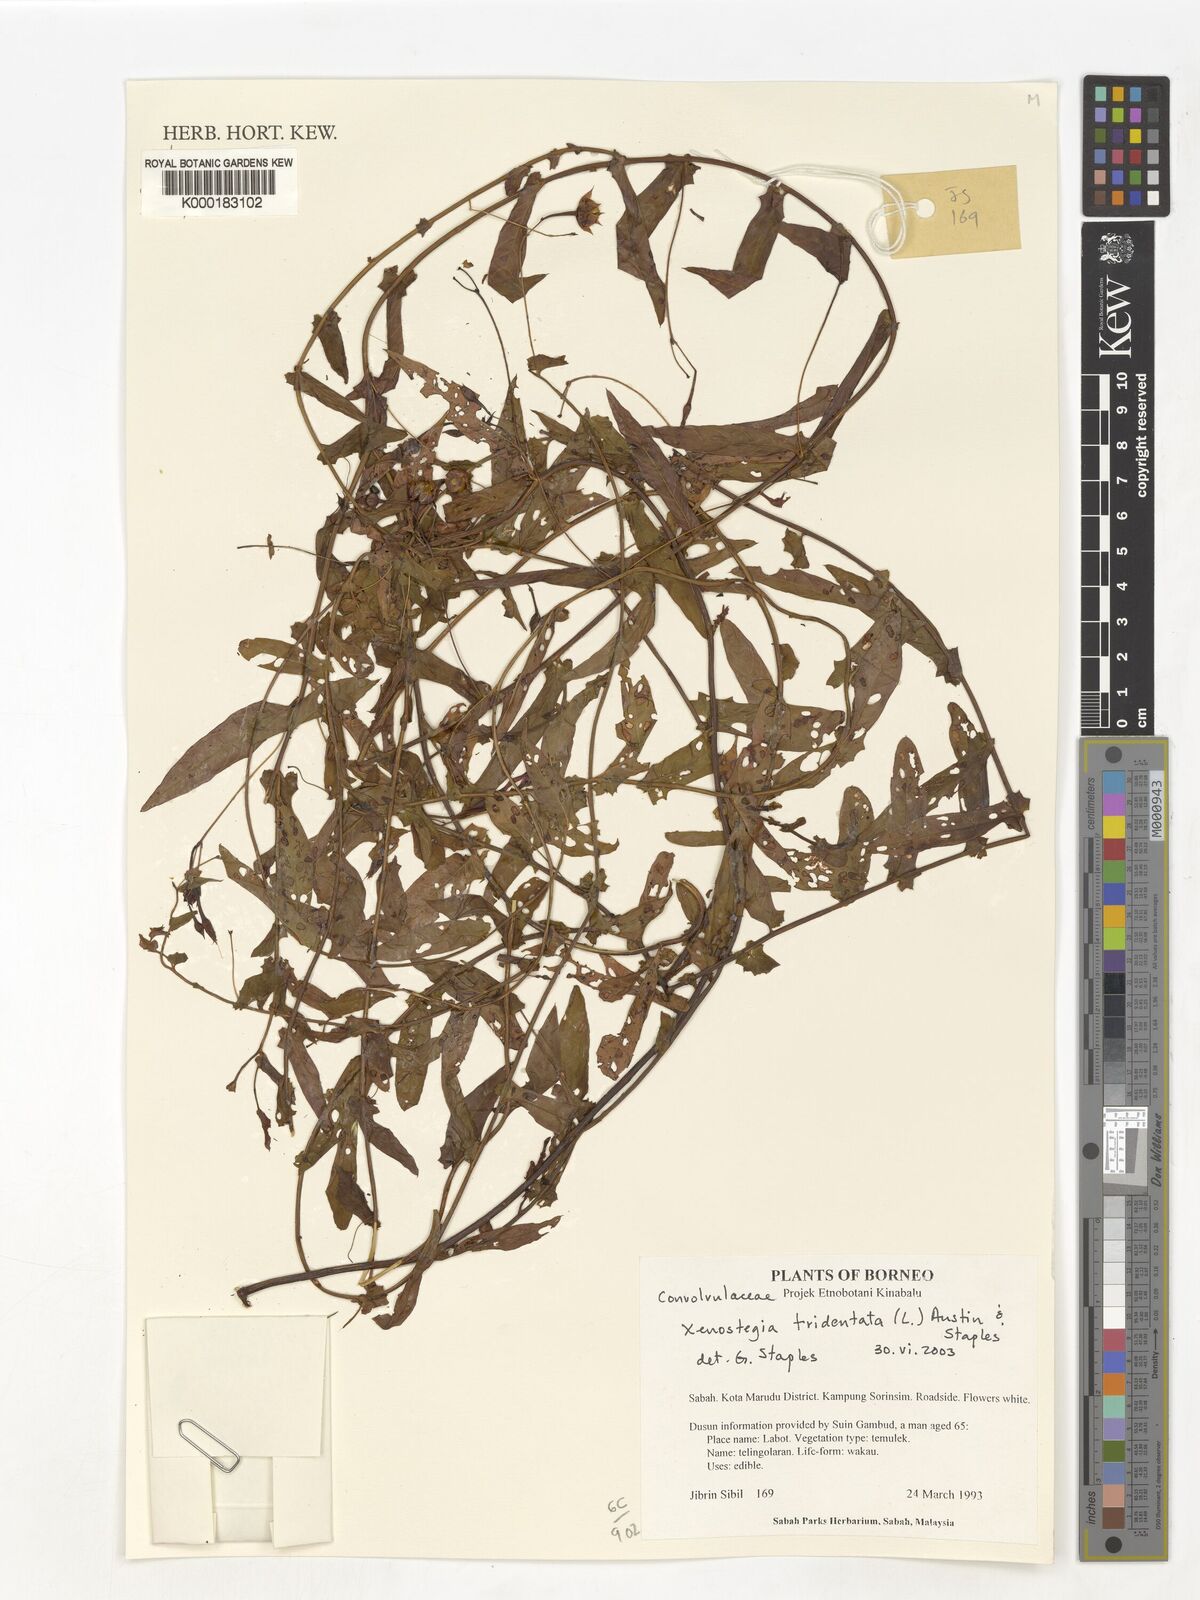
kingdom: Plantae
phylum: Tracheophyta
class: Magnoliopsida
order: Solanales
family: Convolvulaceae
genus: Xenostegia
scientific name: Xenostegia tridentata
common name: African morningvine
